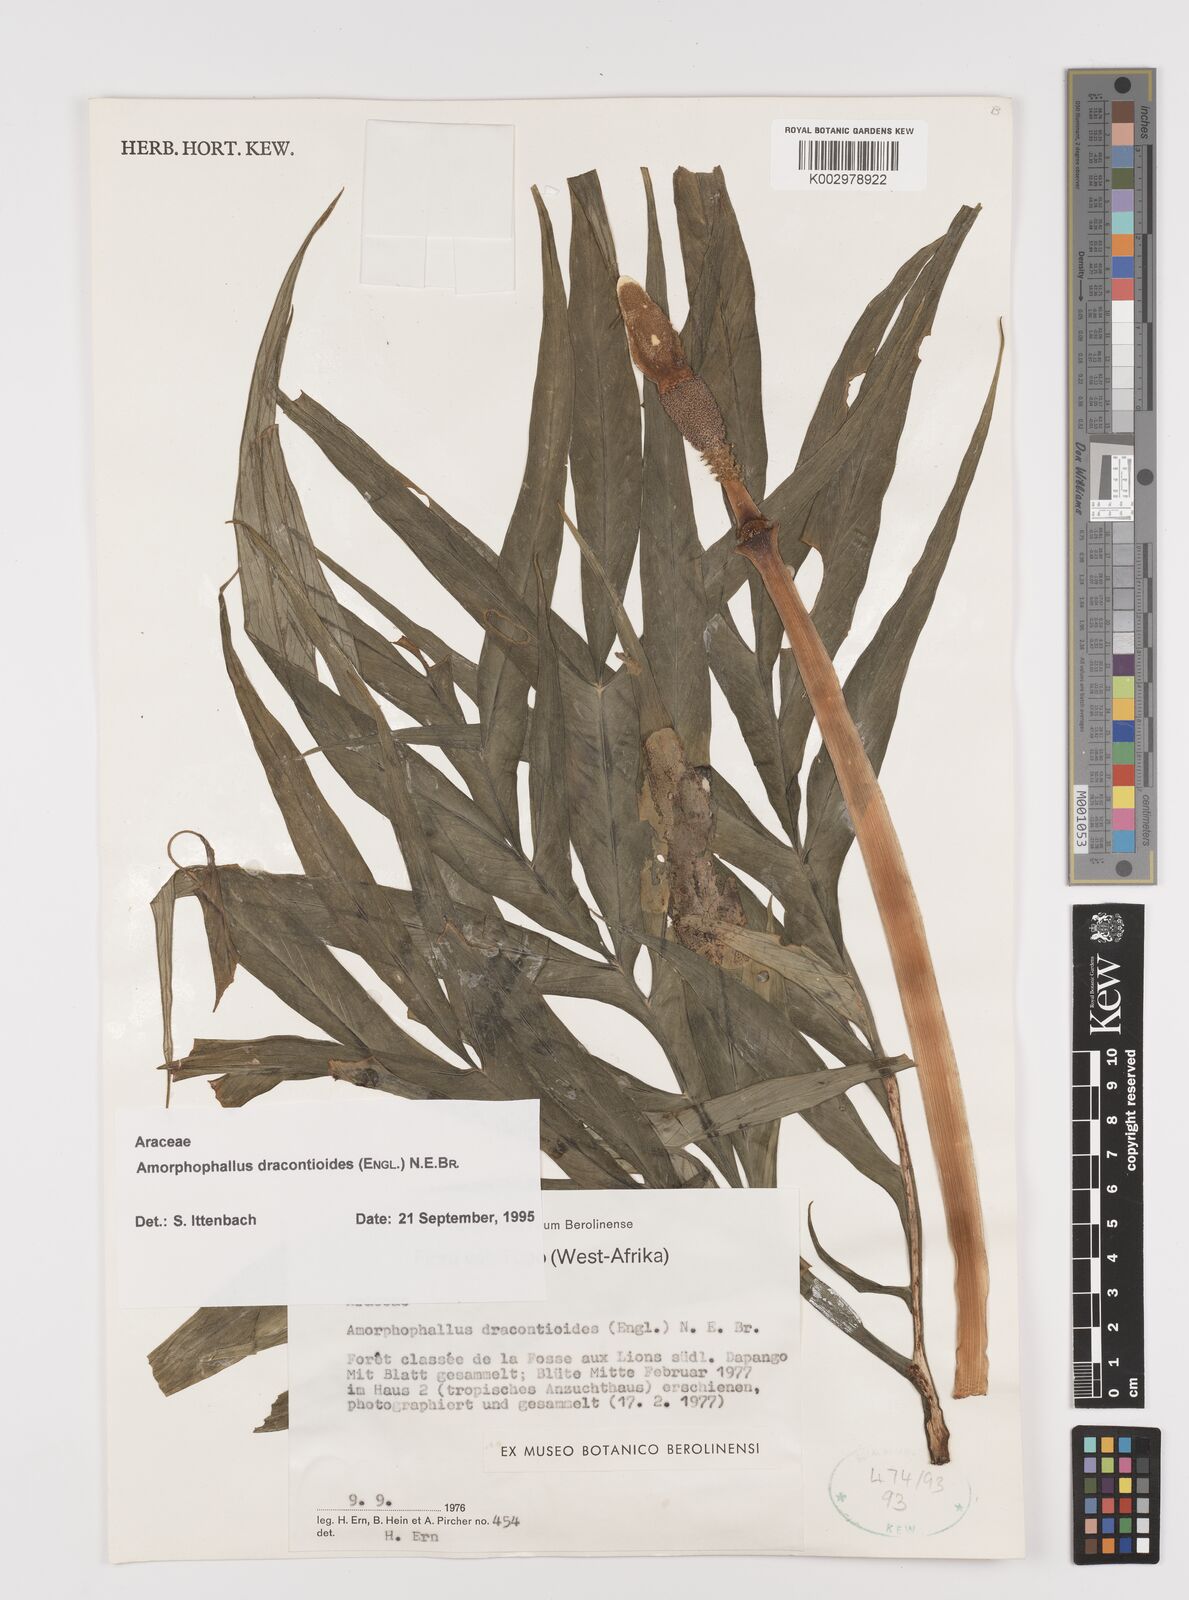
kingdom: Plantae
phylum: Tracheophyta
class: Liliopsida
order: Alismatales
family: Araceae
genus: Amorphophallus
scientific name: Amorphophallus dracontioides
